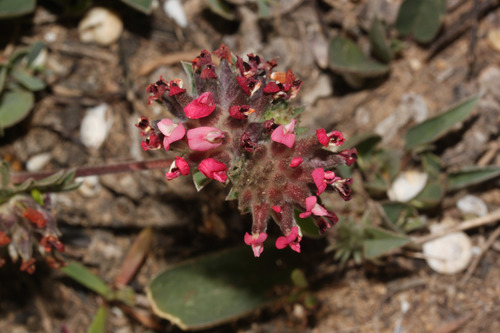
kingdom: Plantae
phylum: Tracheophyta
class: Magnoliopsida
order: Fabales
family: Fabaceae
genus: Anthyllis
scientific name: Anthyllis vulneraria
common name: Kidney vetch
